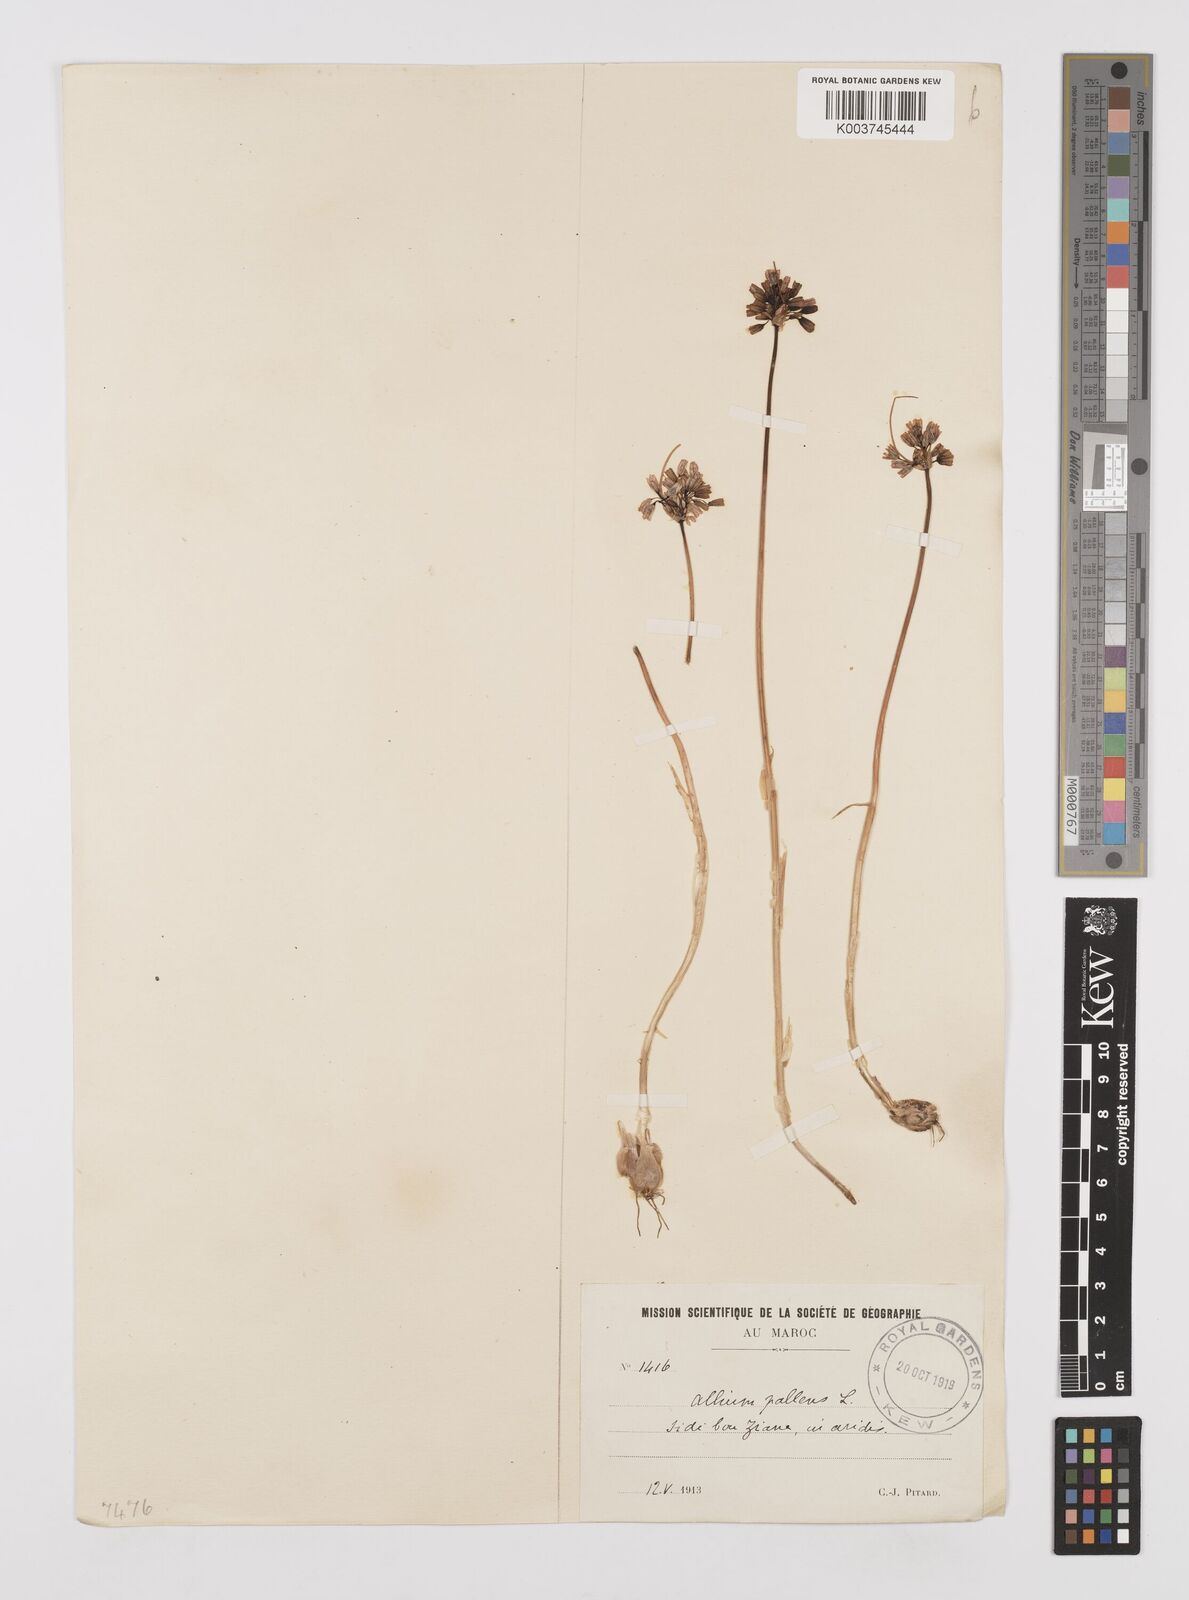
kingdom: Plantae
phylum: Tracheophyta
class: Liliopsida
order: Asparagales
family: Amaryllidaceae
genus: Allium
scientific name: Allium paniculatum
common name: Pale garlic
